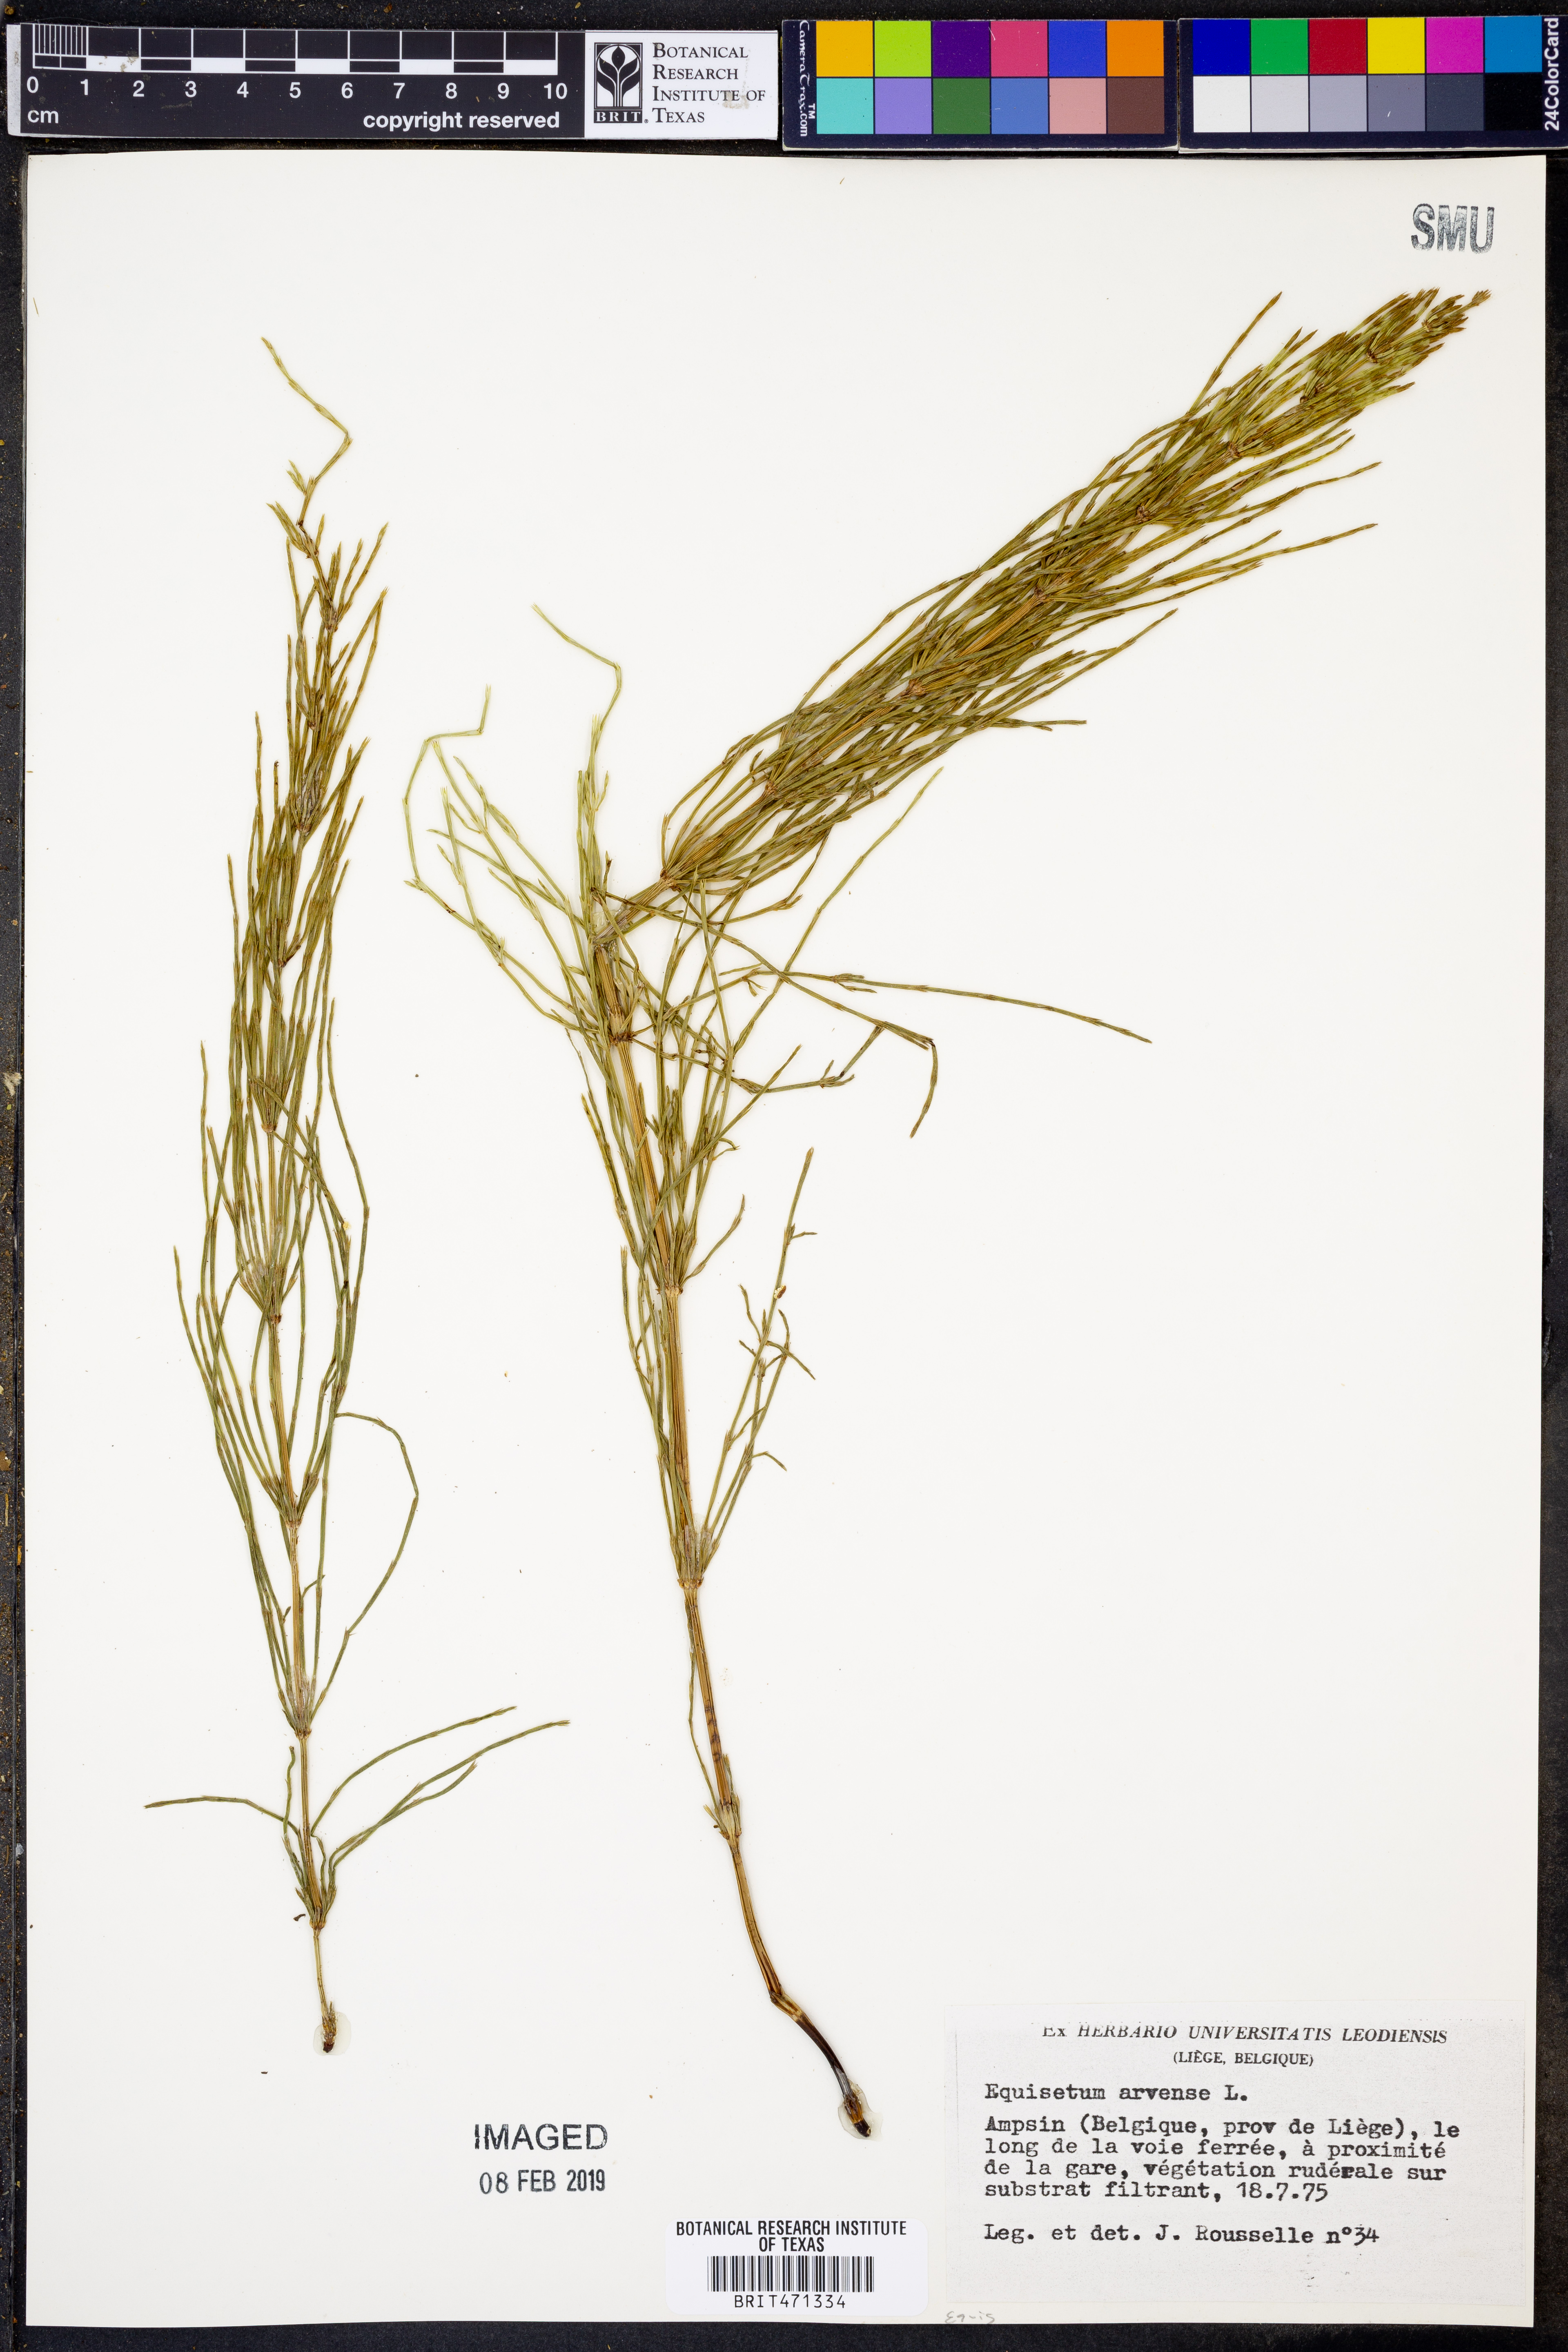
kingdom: Plantae
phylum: Tracheophyta
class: Polypodiopsida
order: Equisetales
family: Equisetaceae
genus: Equisetum
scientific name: Equisetum arvense
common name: Field horsetail
